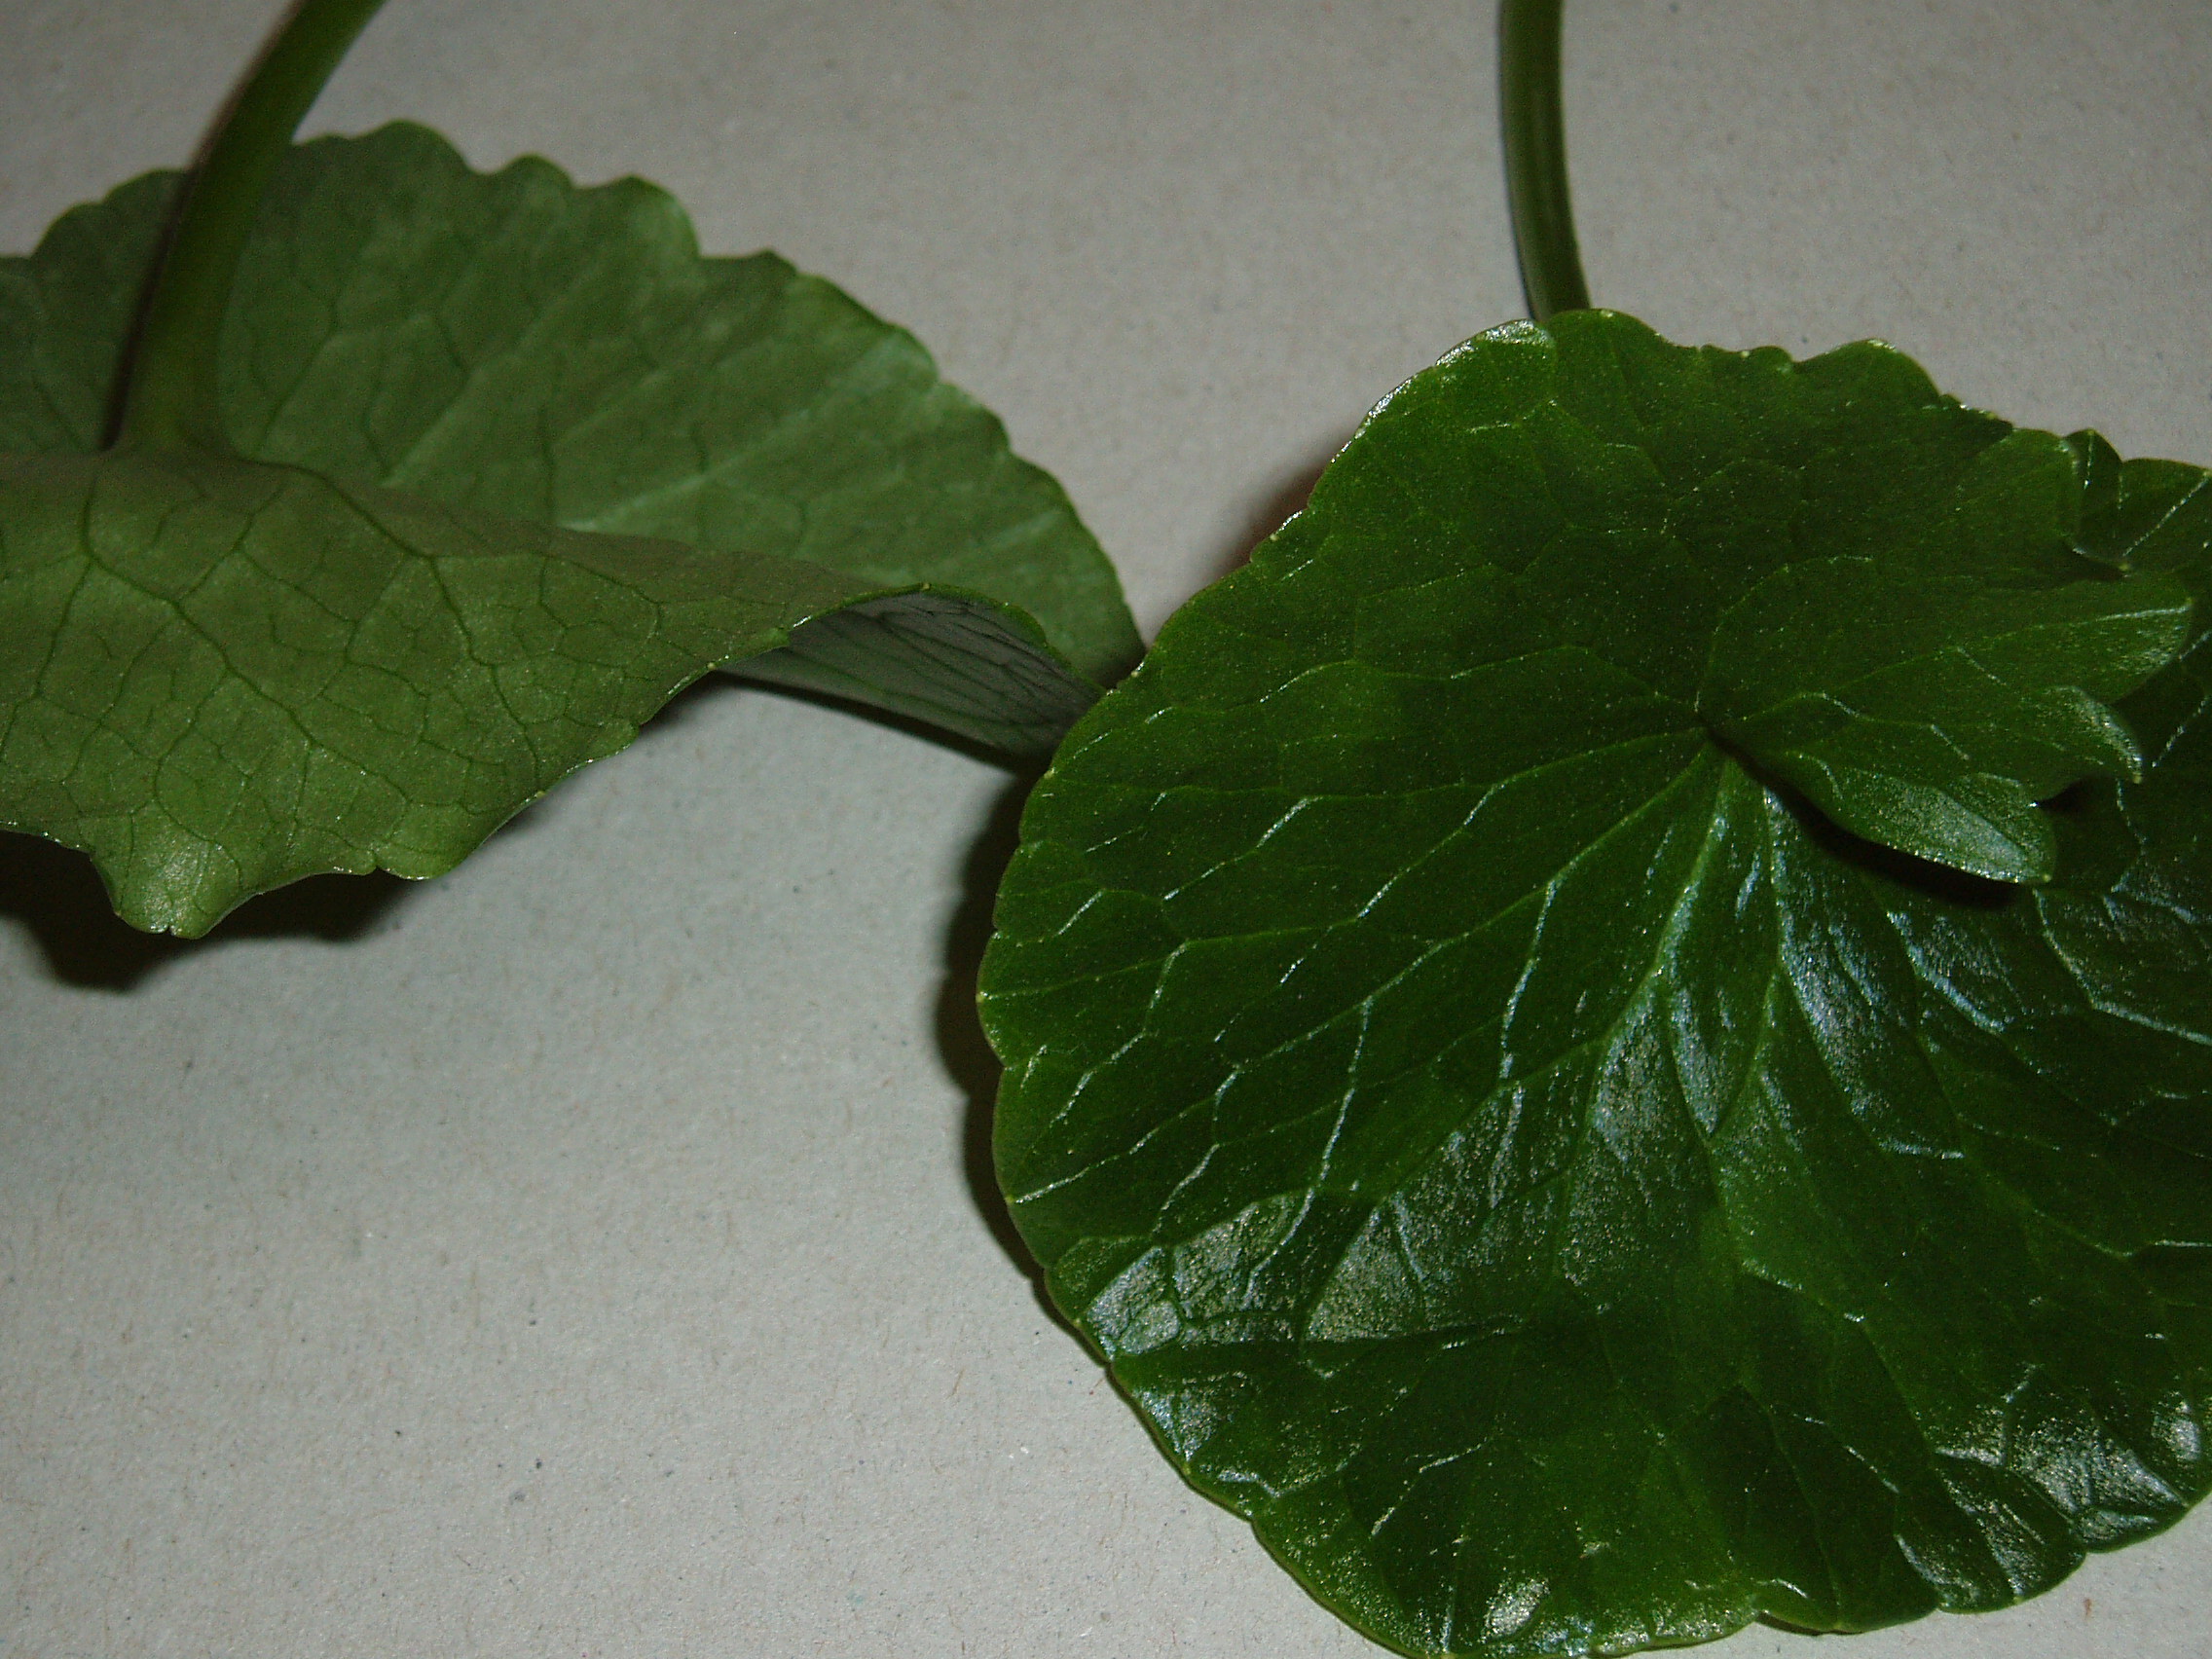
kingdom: Plantae
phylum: Tracheophyta
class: Magnoliopsida
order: Ranunculales
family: Ranunculaceae
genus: Ficaria
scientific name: Ficaria grandiflora
